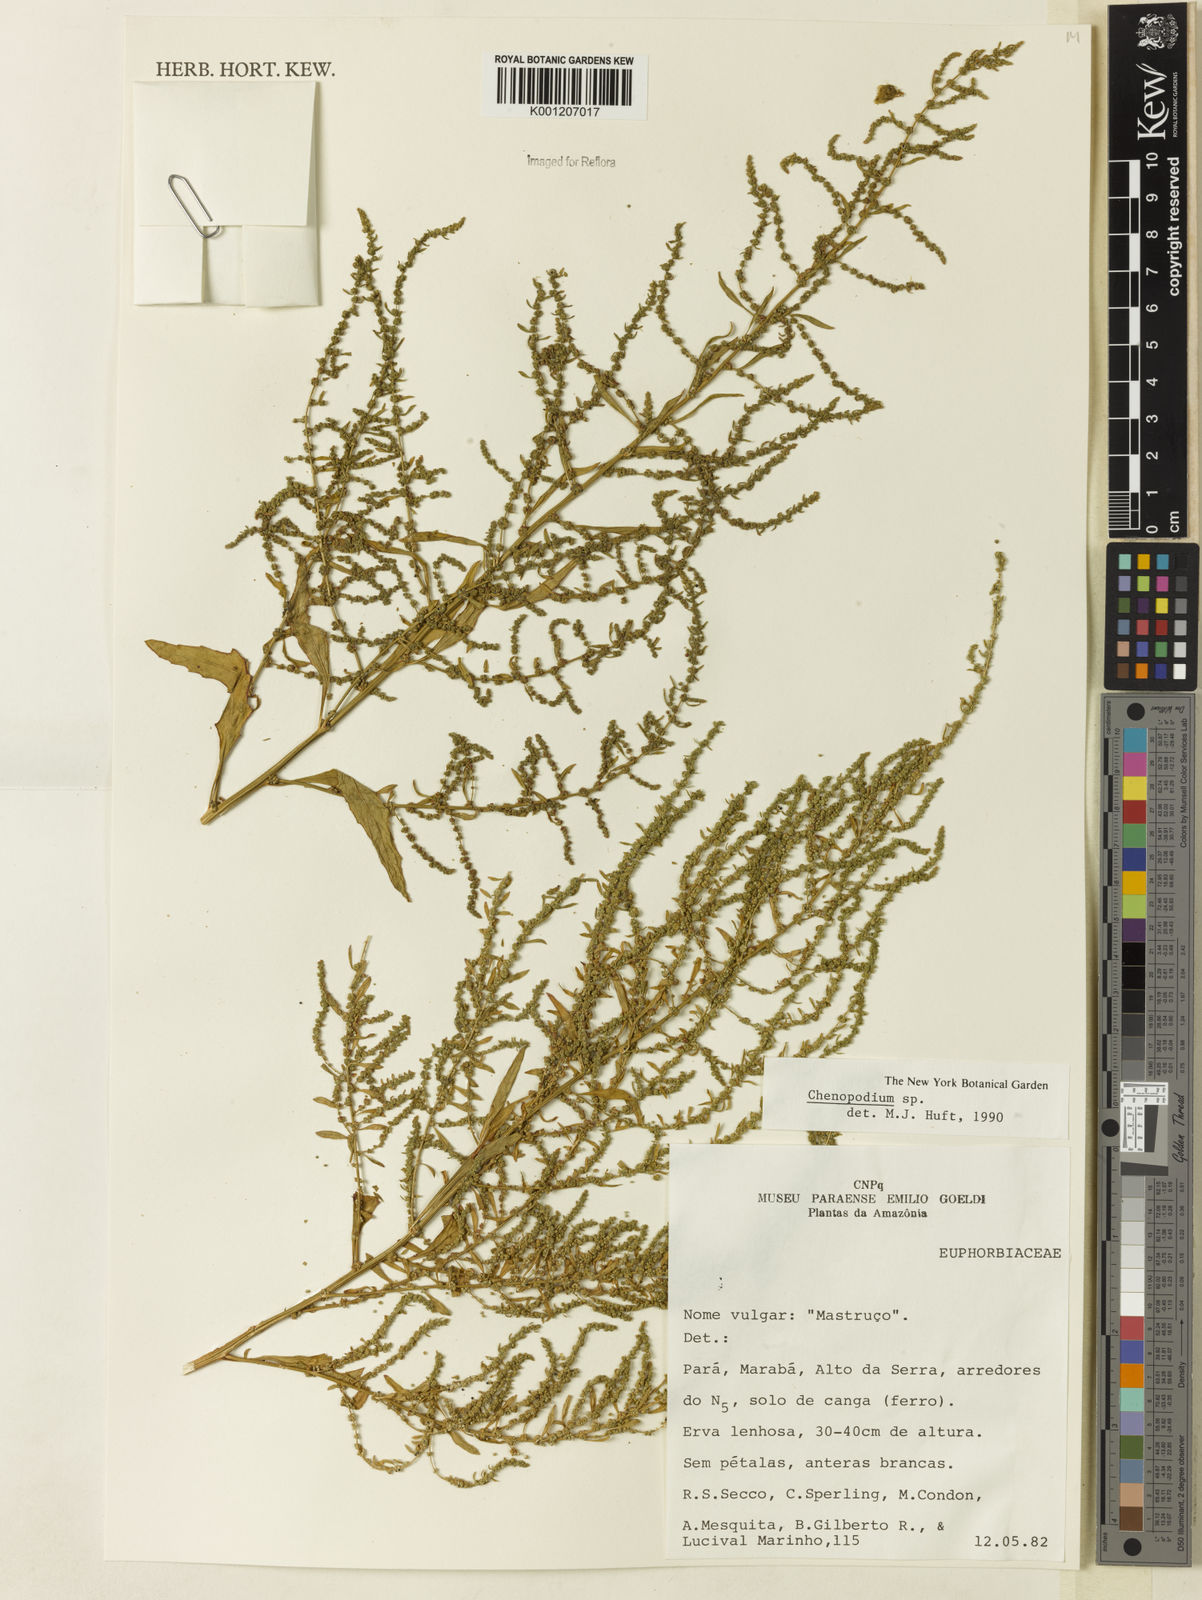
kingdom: Plantae
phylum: Tracheophyta
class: Magnoliopsida
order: Caryophyllales
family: Amaranthaceae
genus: Chenopodium
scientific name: Chenopodium
